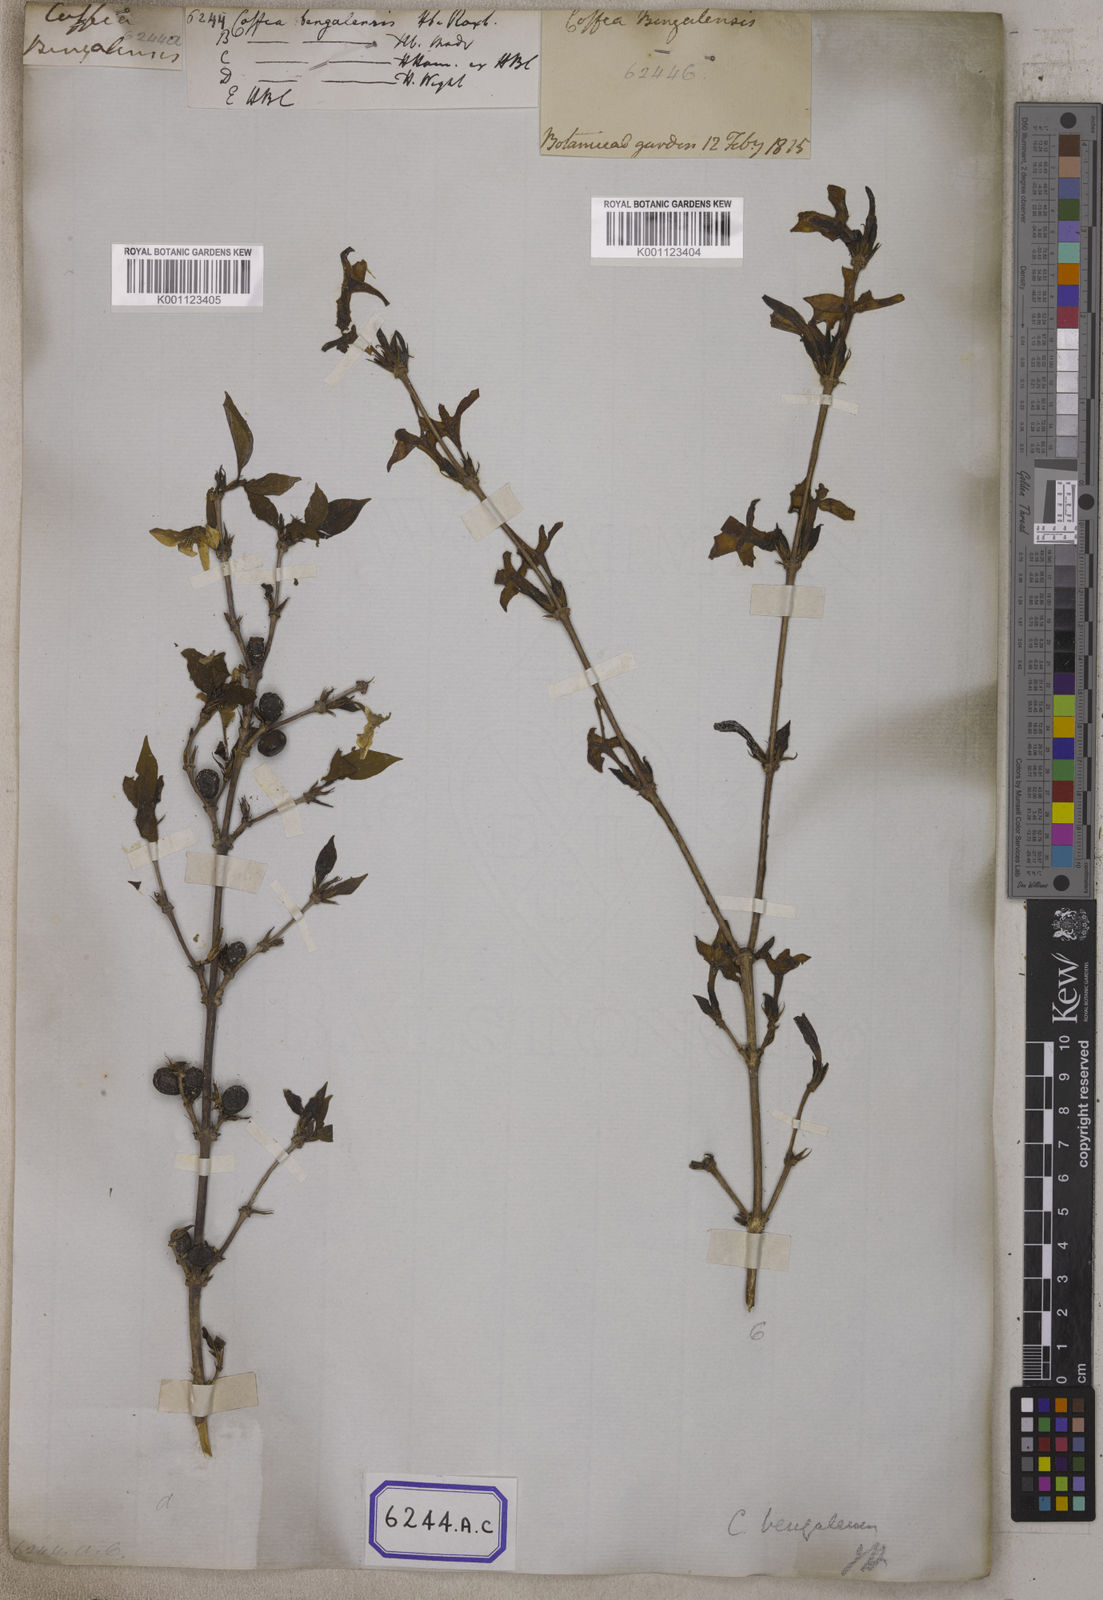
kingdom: Plantae
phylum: Tracheophyta
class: Magnoliopsida
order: Gentianales
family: Rubiaceae
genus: Coffea
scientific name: Coffea
